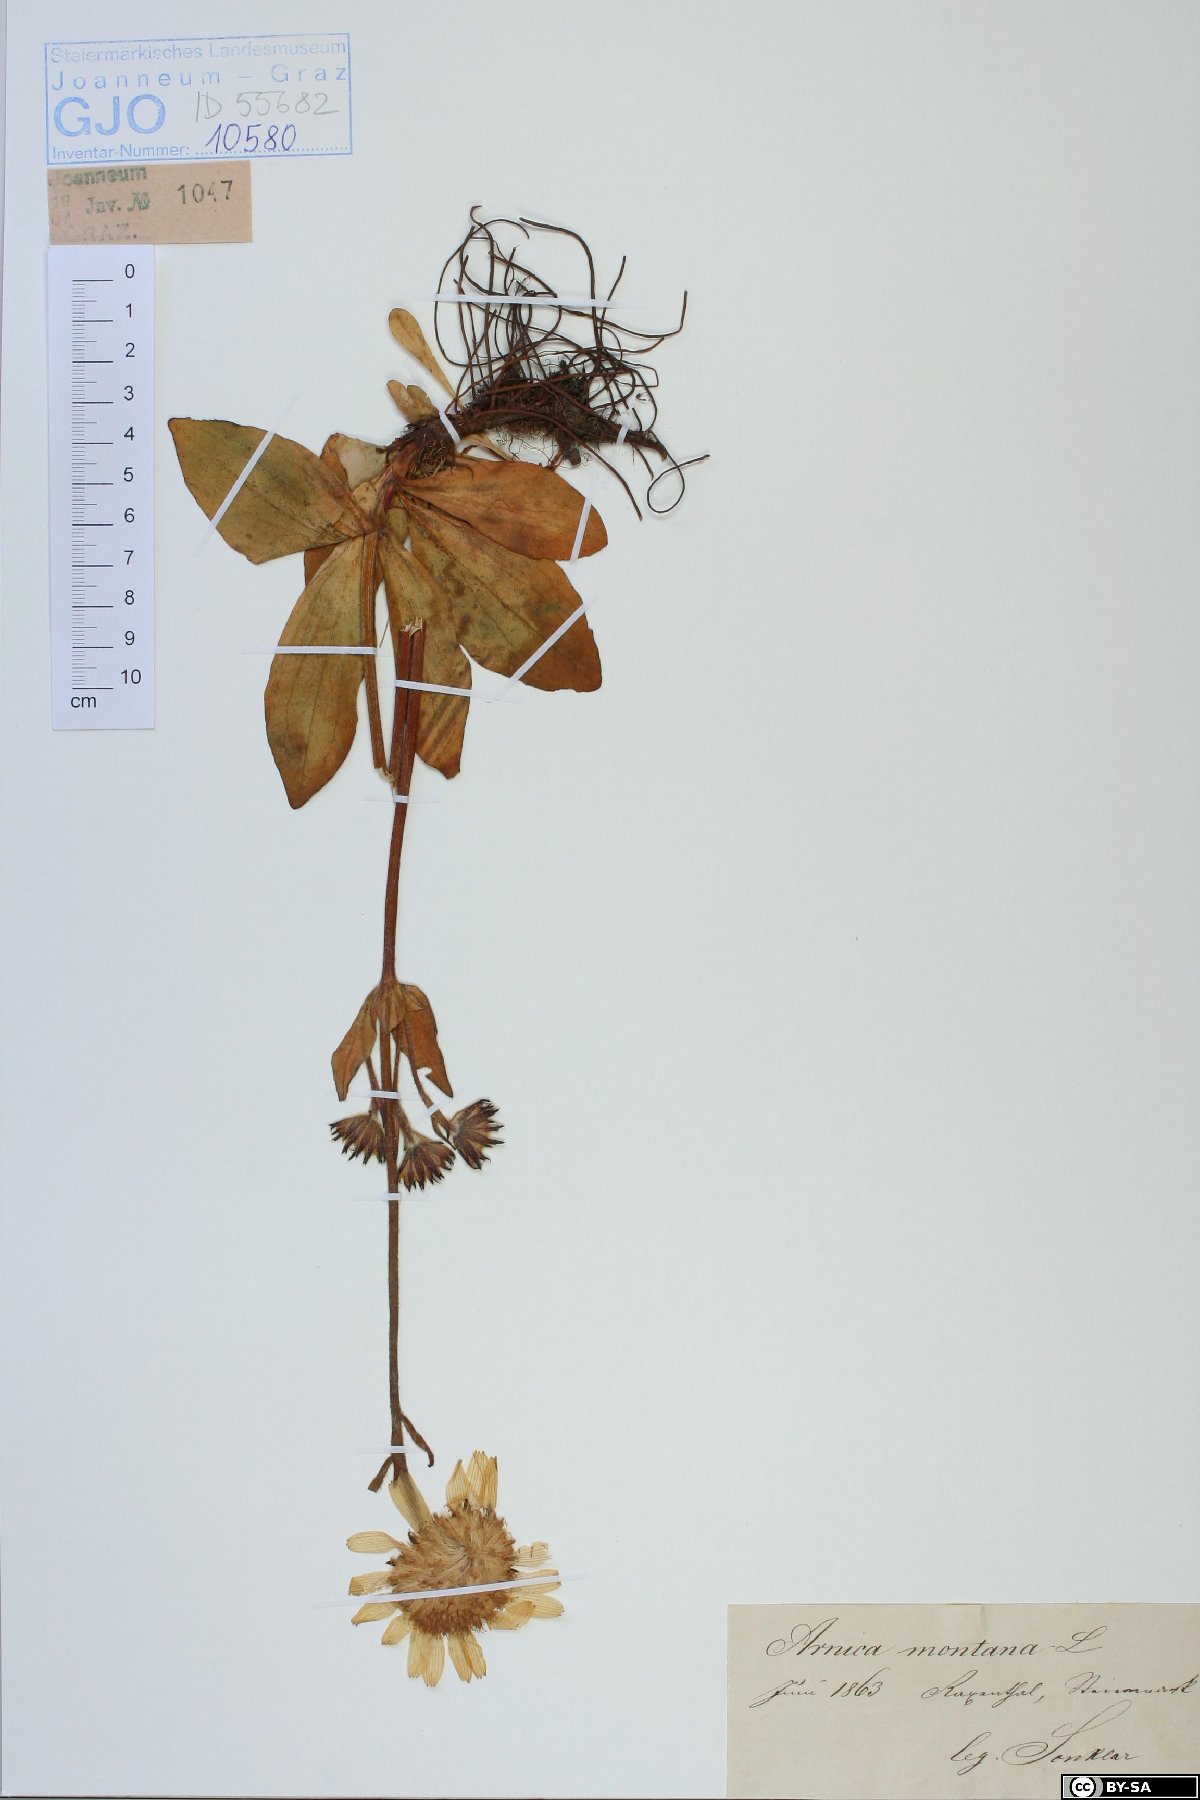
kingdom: Plantae
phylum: Tracheophyta
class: Magnoliopsida
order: Asterales
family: Asteraceae
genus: Arnica
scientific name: Arnica montana
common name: Leopard's bane
